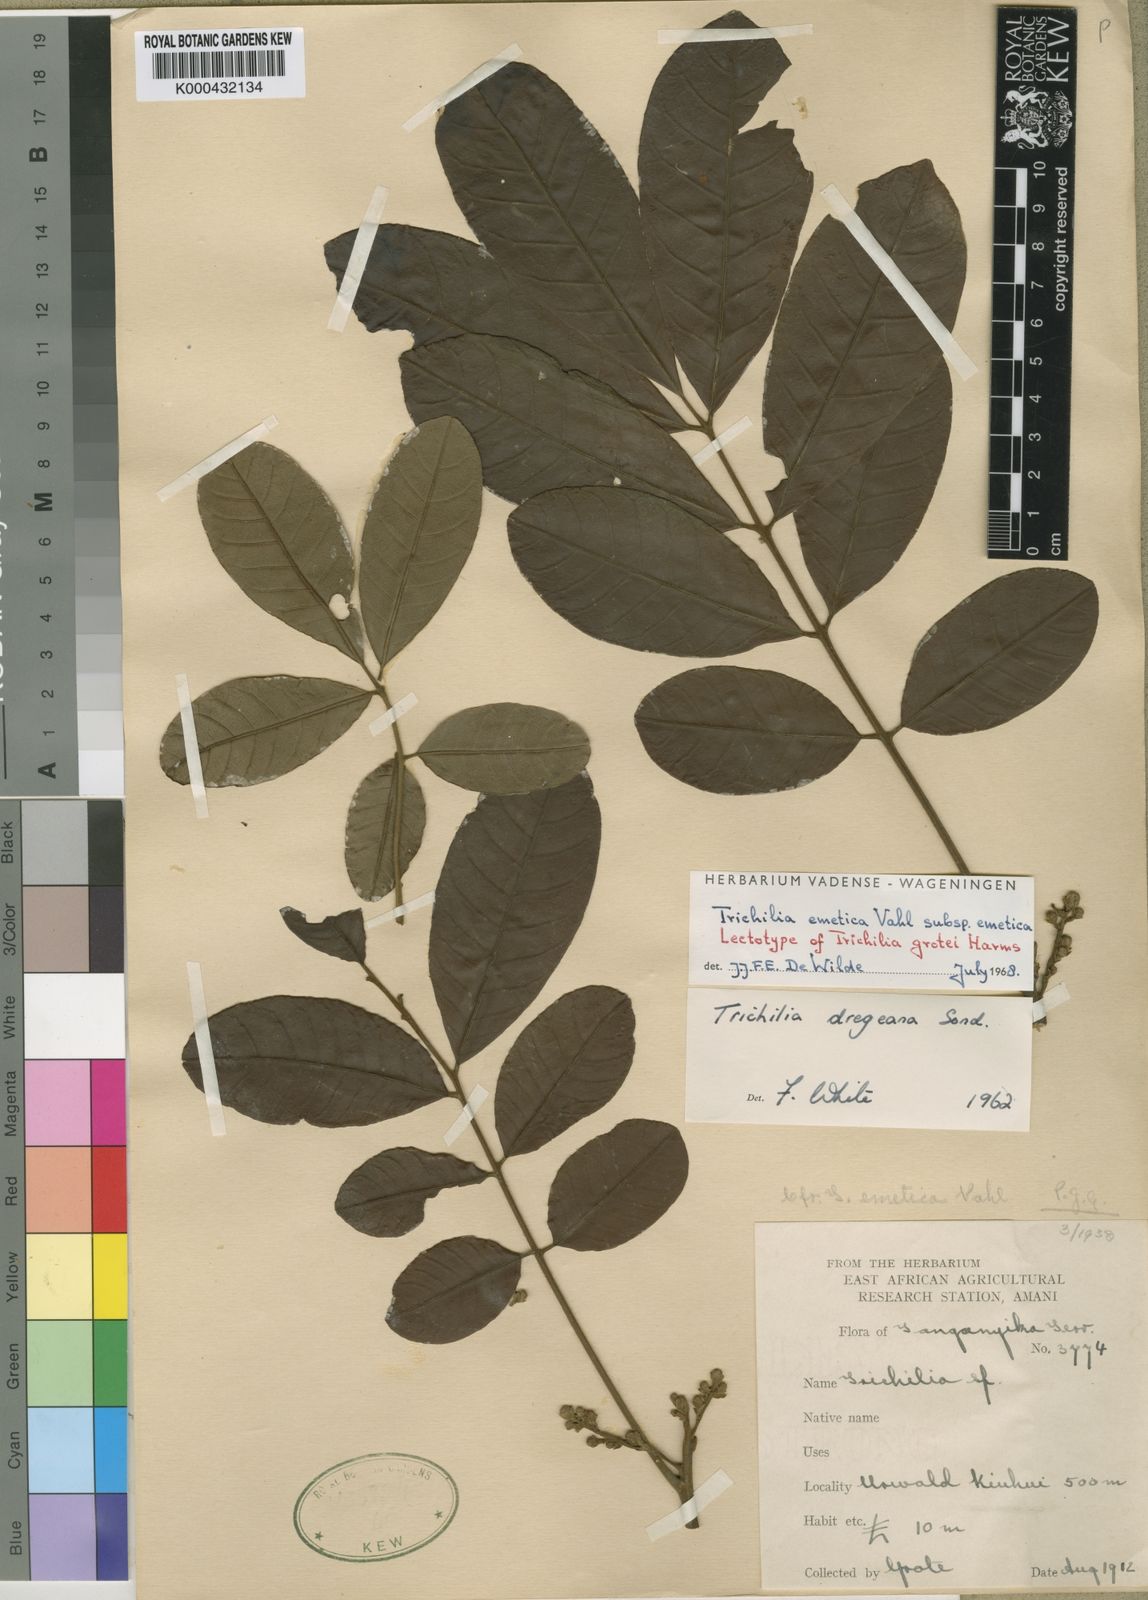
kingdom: Plantae
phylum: Tracheophyta
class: Magnoliopsida
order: Sapindales
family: Meliaceae
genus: Trichilia
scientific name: Trichilia emetica
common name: Christmas-bells
